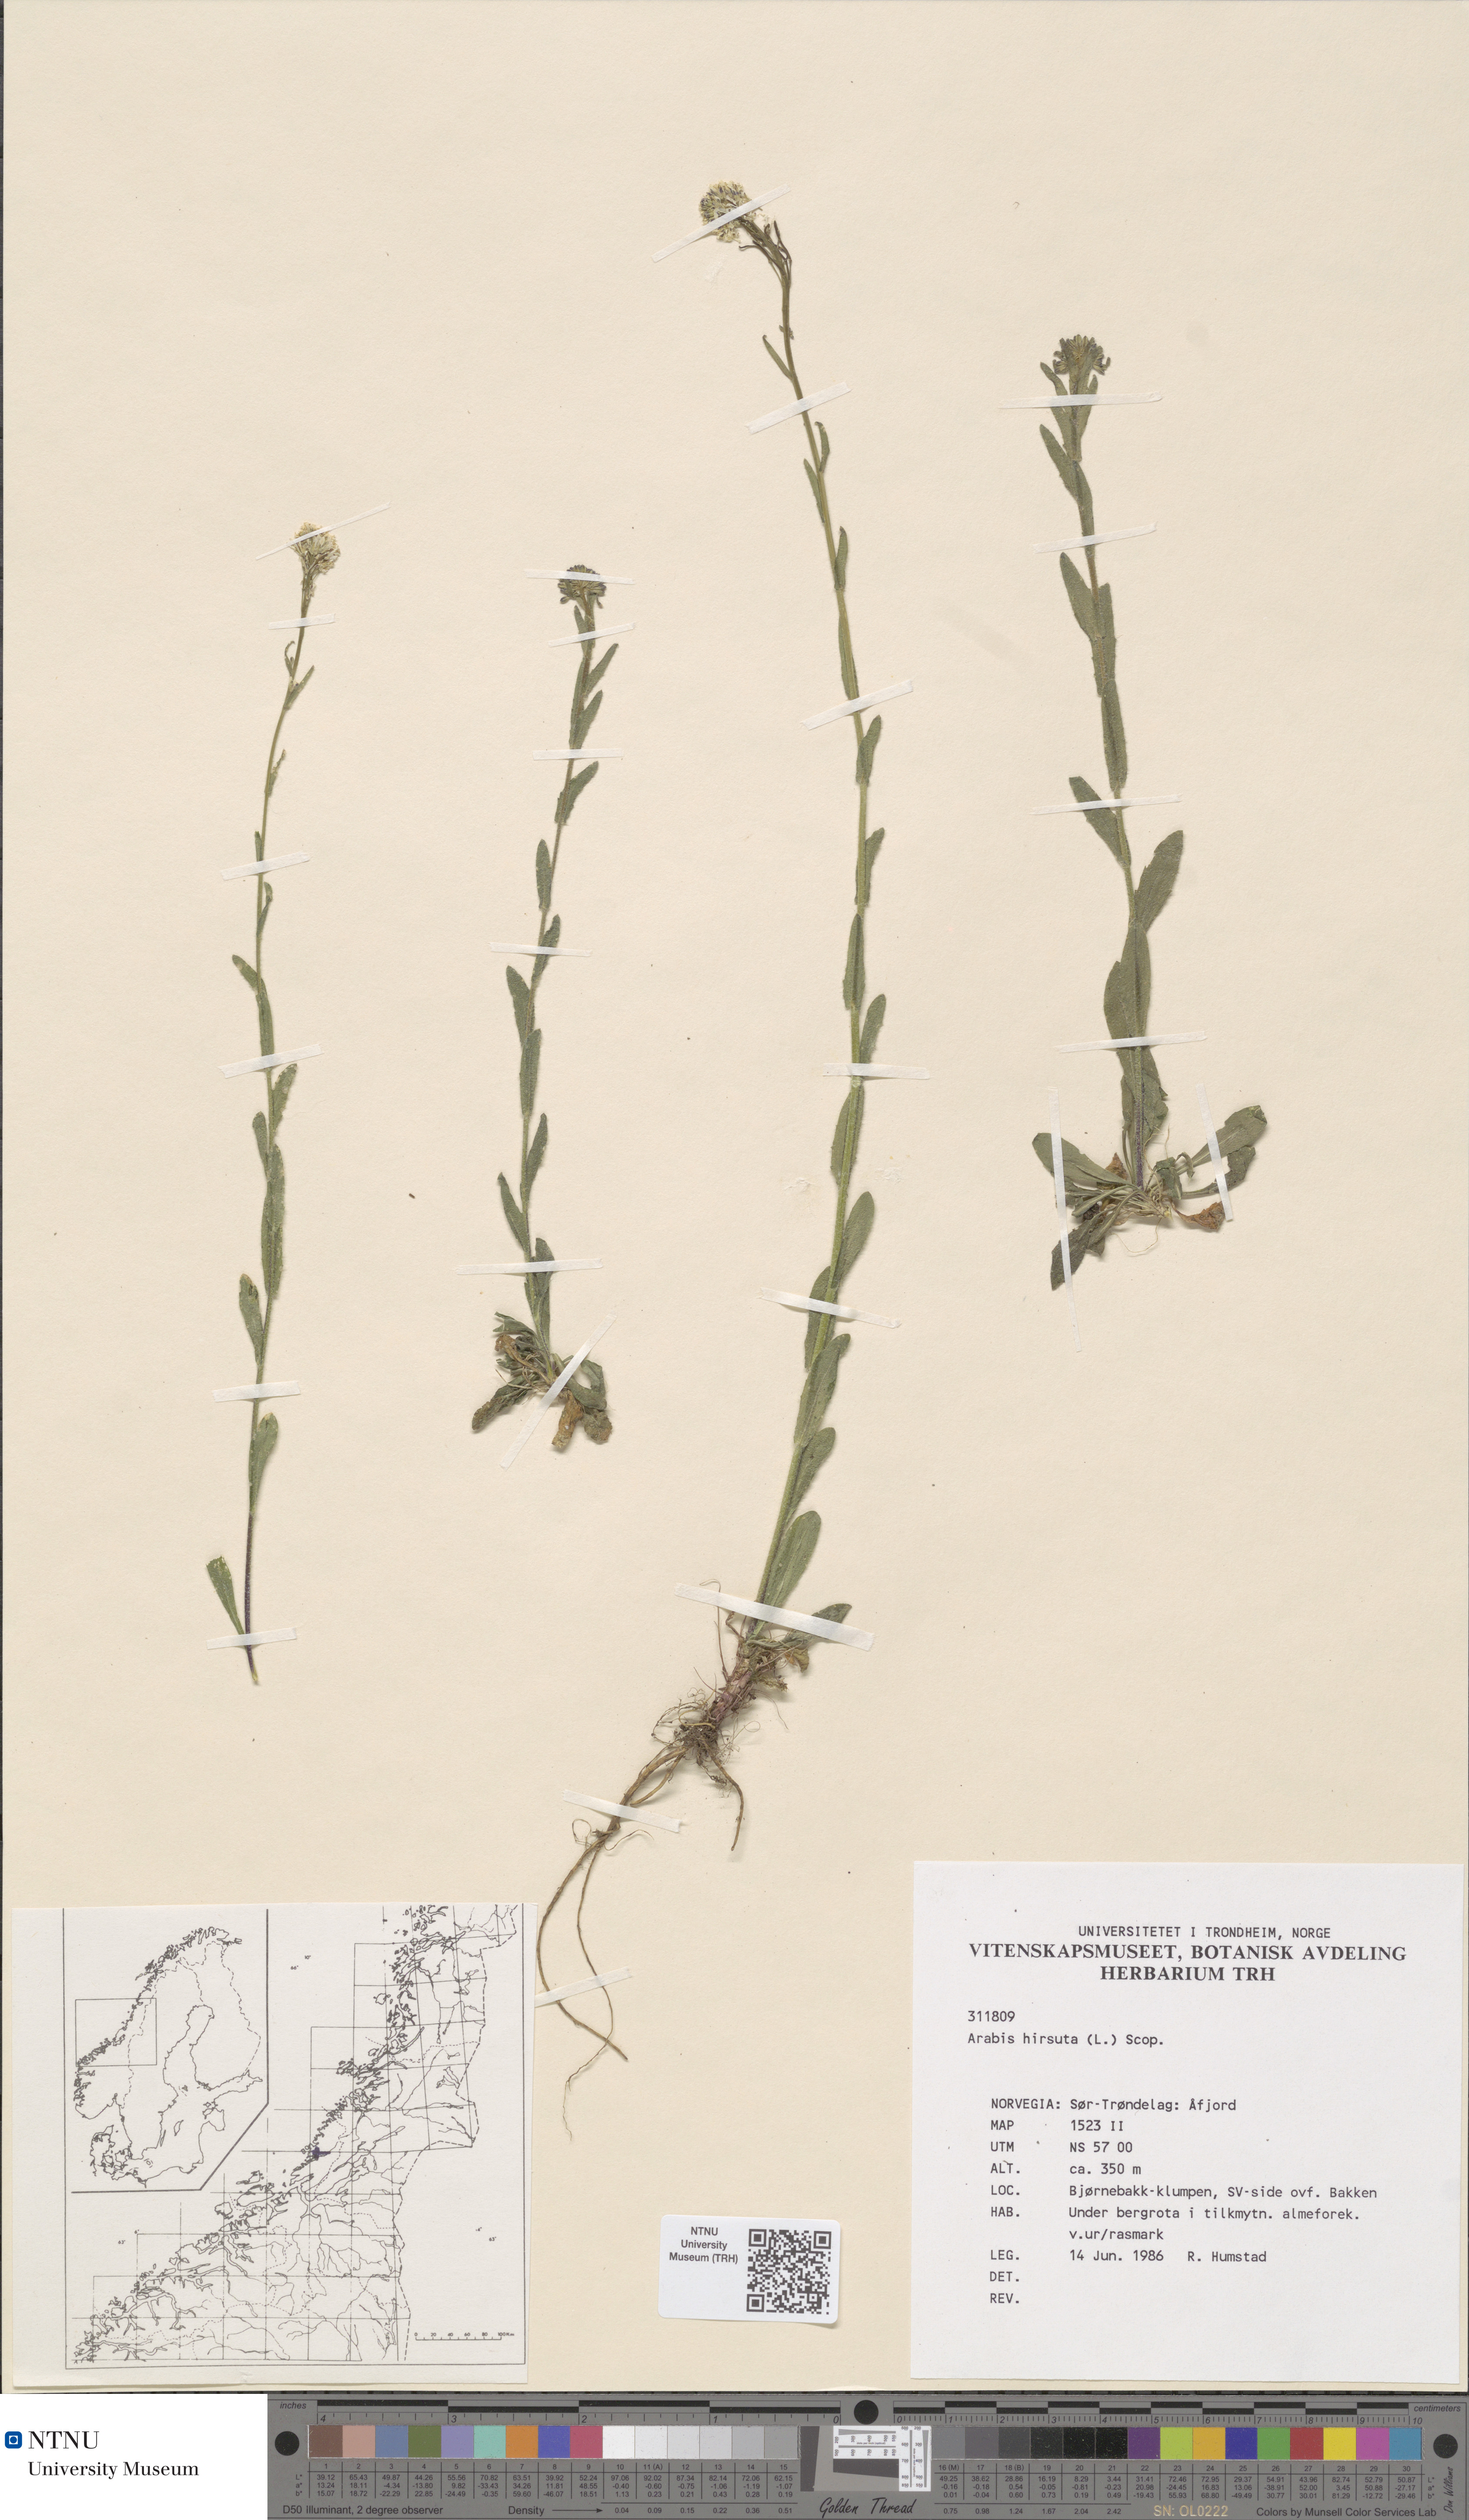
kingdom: Plantae
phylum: Tracheophyta
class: Magnoliopsida
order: Brassicales
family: Brassicaceae
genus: Arabis
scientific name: Arabis hirsuta
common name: Hairy rock-cress
